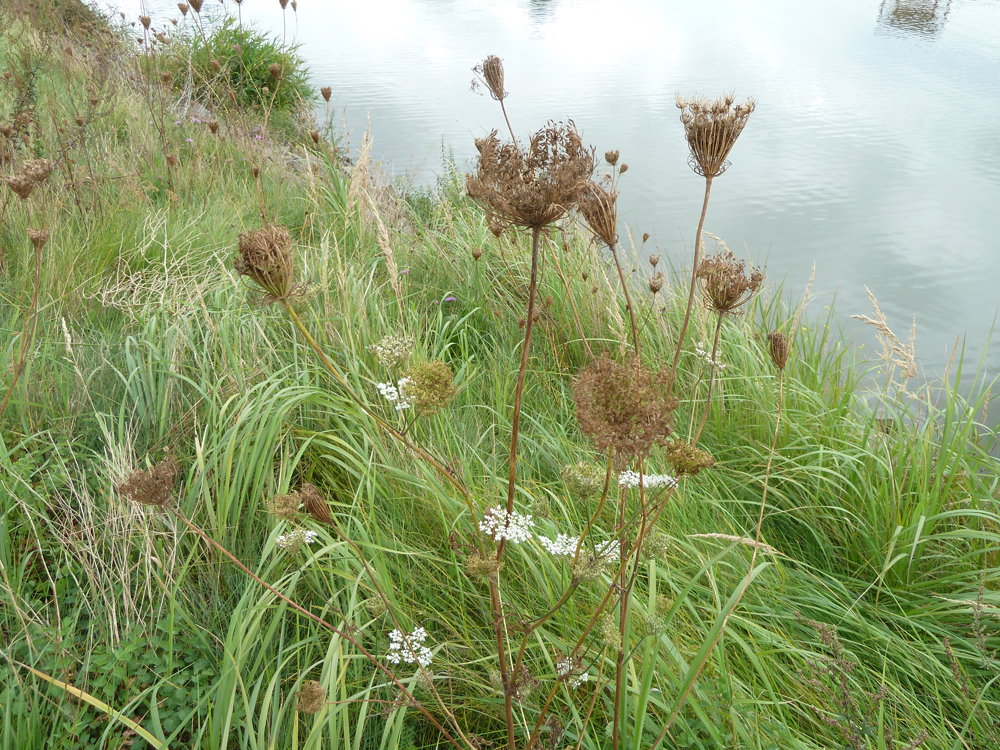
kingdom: Plantae
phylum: Tracheophyta
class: Magnoliopsida
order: Apiales
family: Apiaceae
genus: Daucus
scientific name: Daucus carota
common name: Wild carrot
